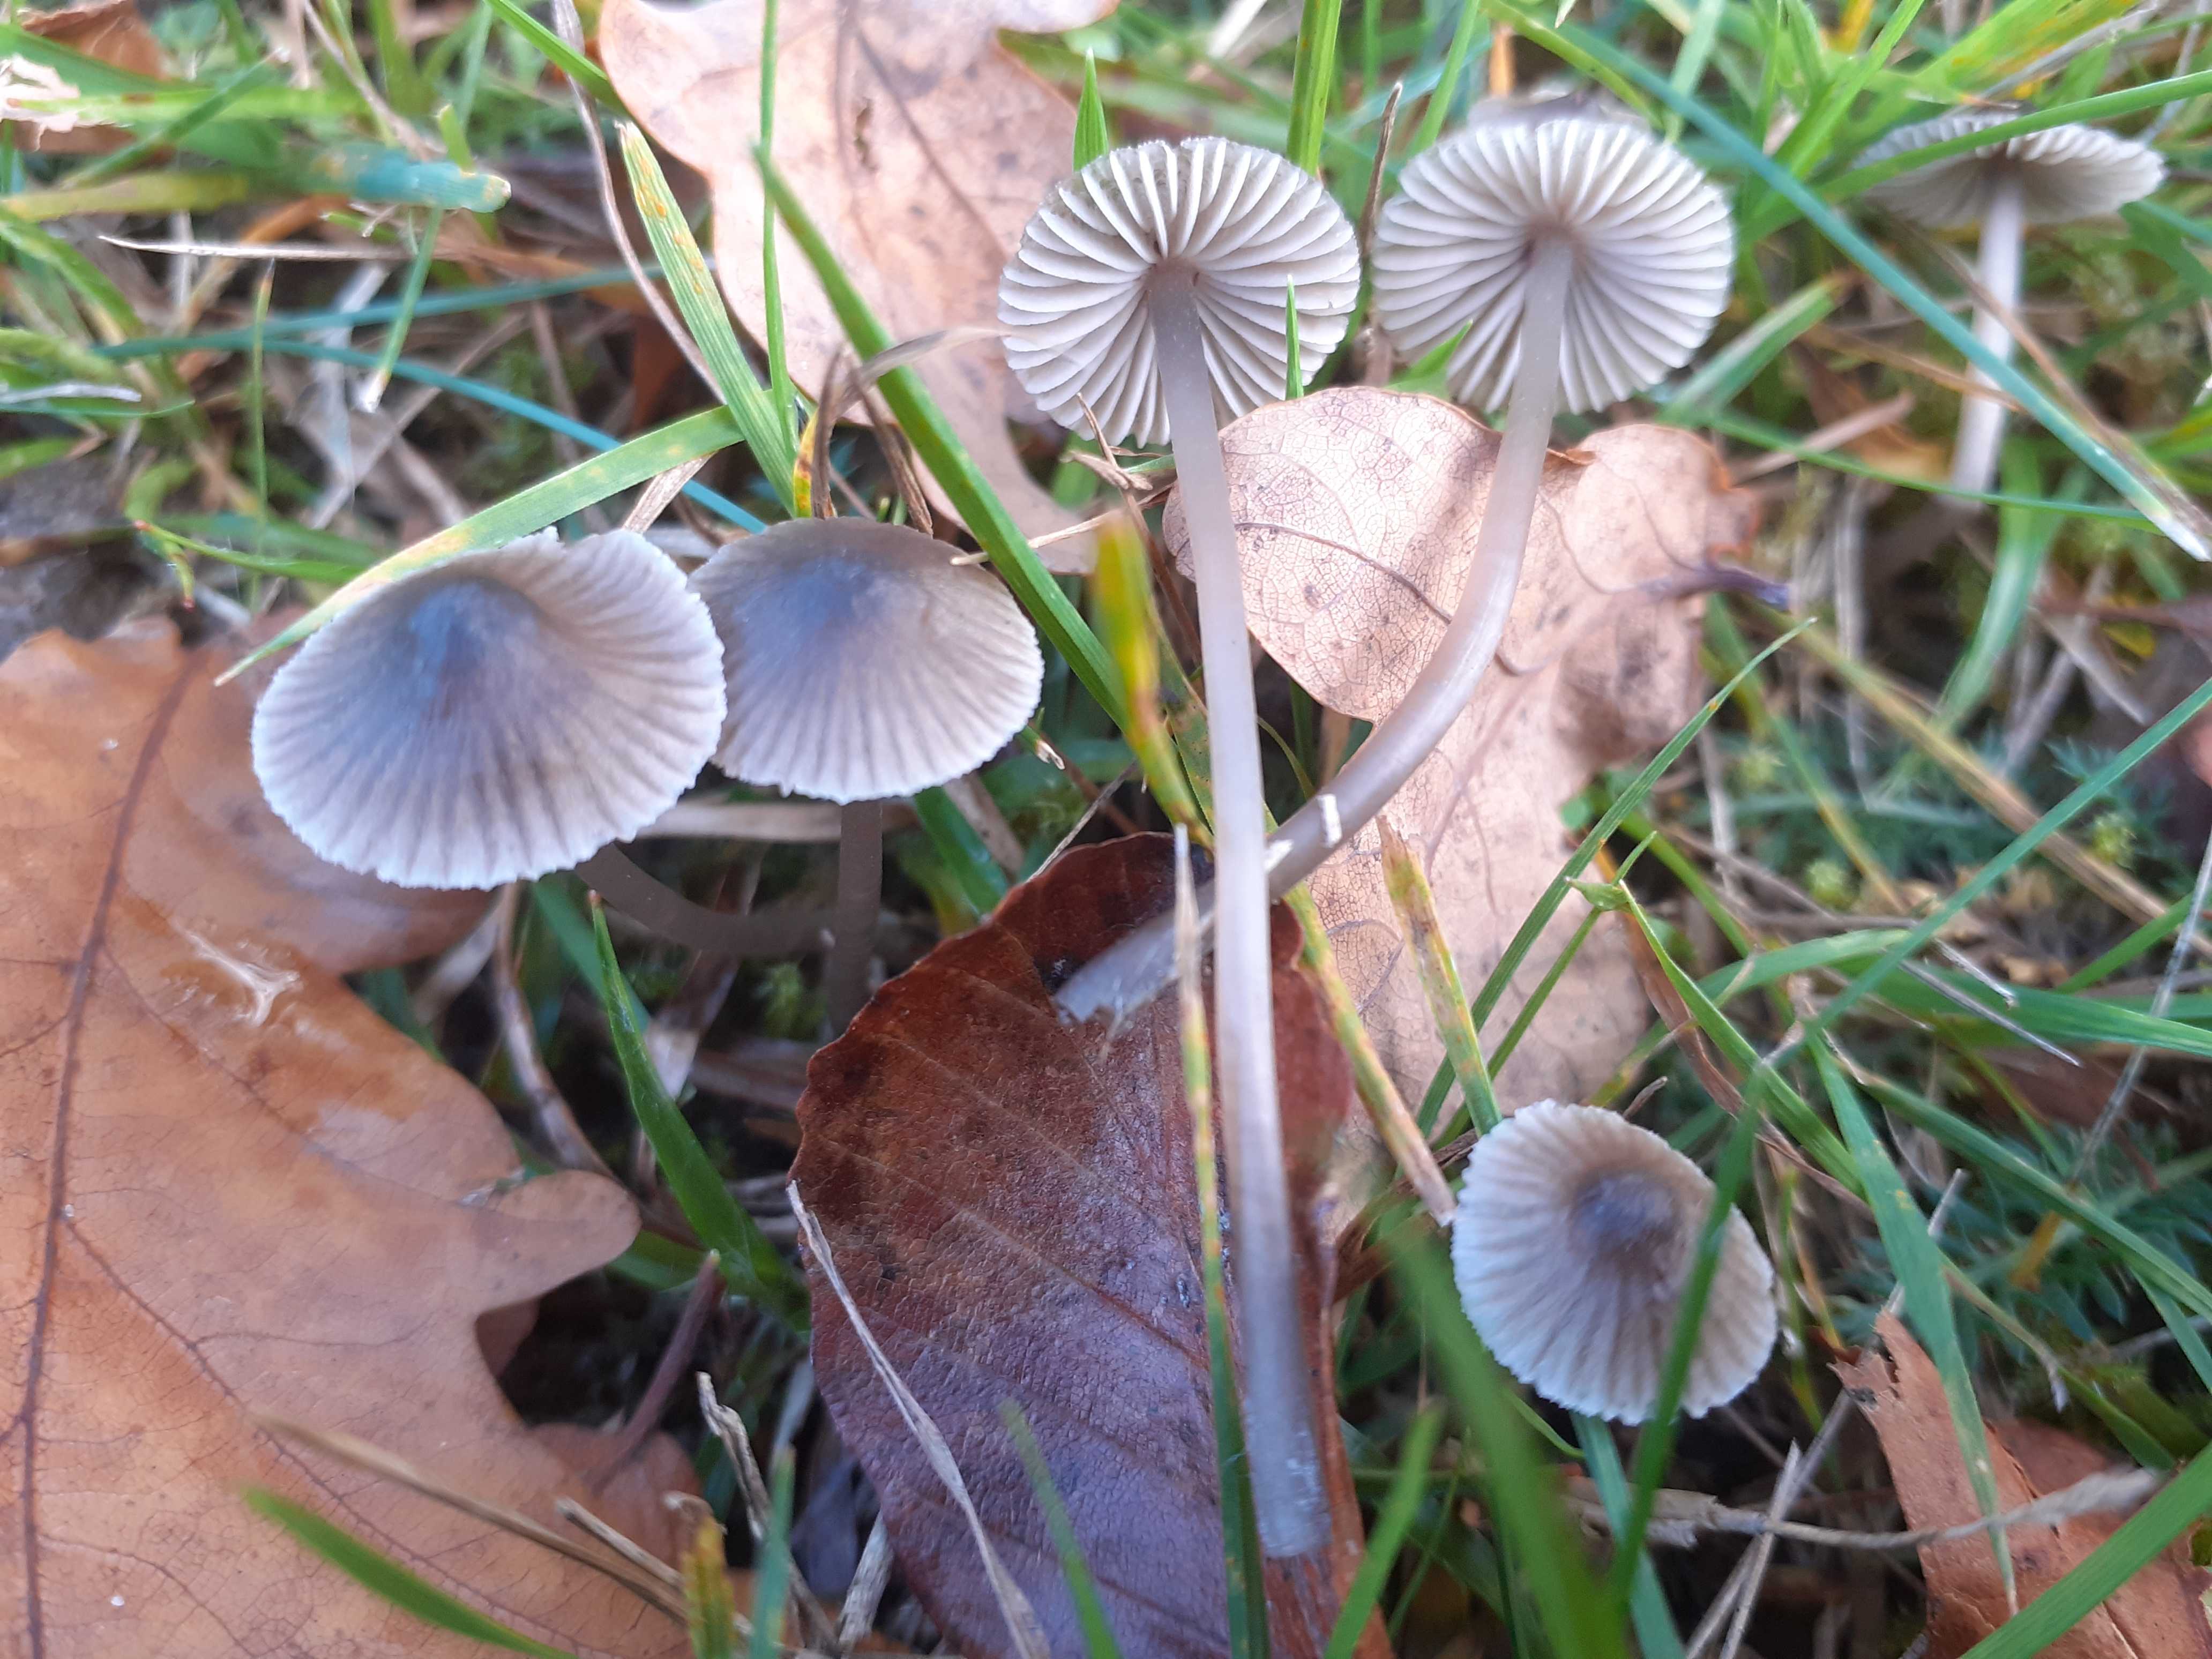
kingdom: Fungi
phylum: Basidiomycota
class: Agaricomycetes
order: Agaricales
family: Mycenaceae
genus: Mycena
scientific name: Mycena aetites
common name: plæne-huesvamp
